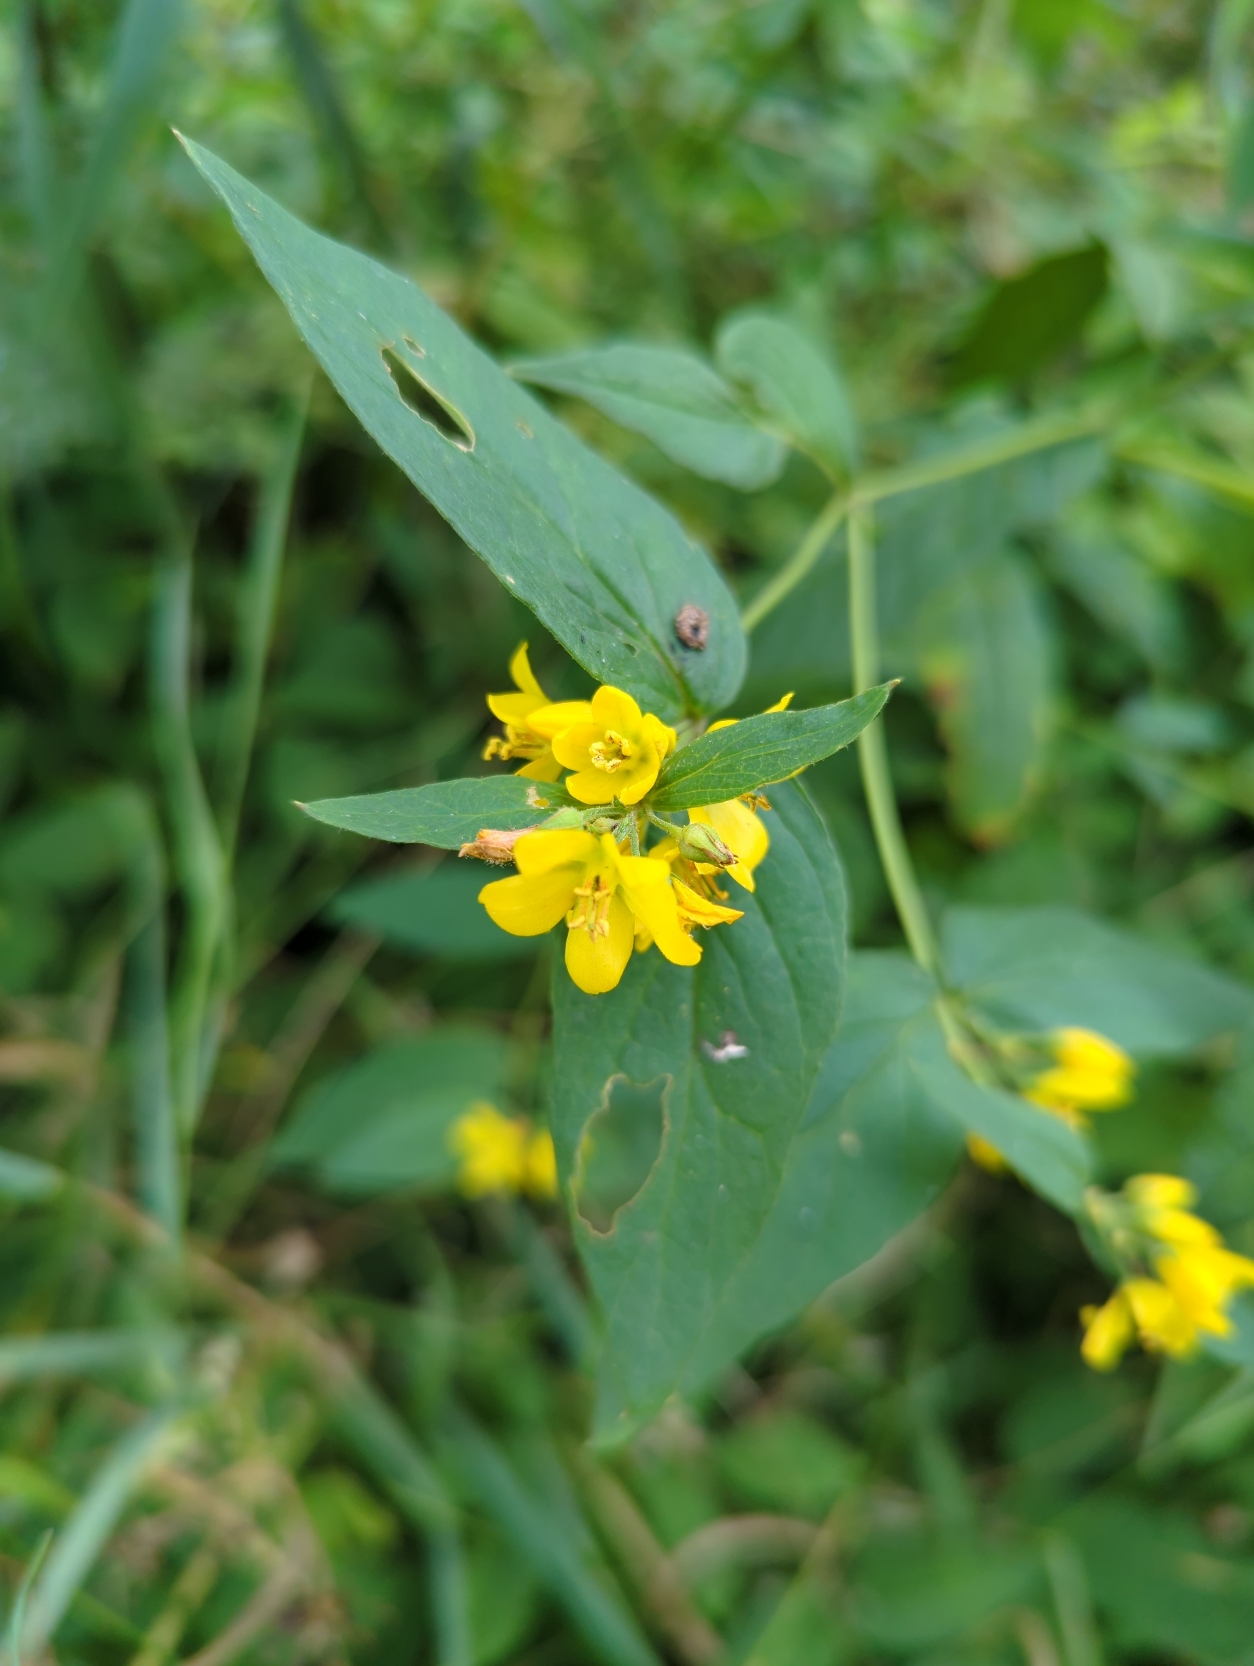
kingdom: Plantae
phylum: Tracheophyta
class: Magnoliopsida
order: Ericales
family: Primulaceae
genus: Lysimachia
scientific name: Lysimachia vulgaris
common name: Almindelig fredløs
